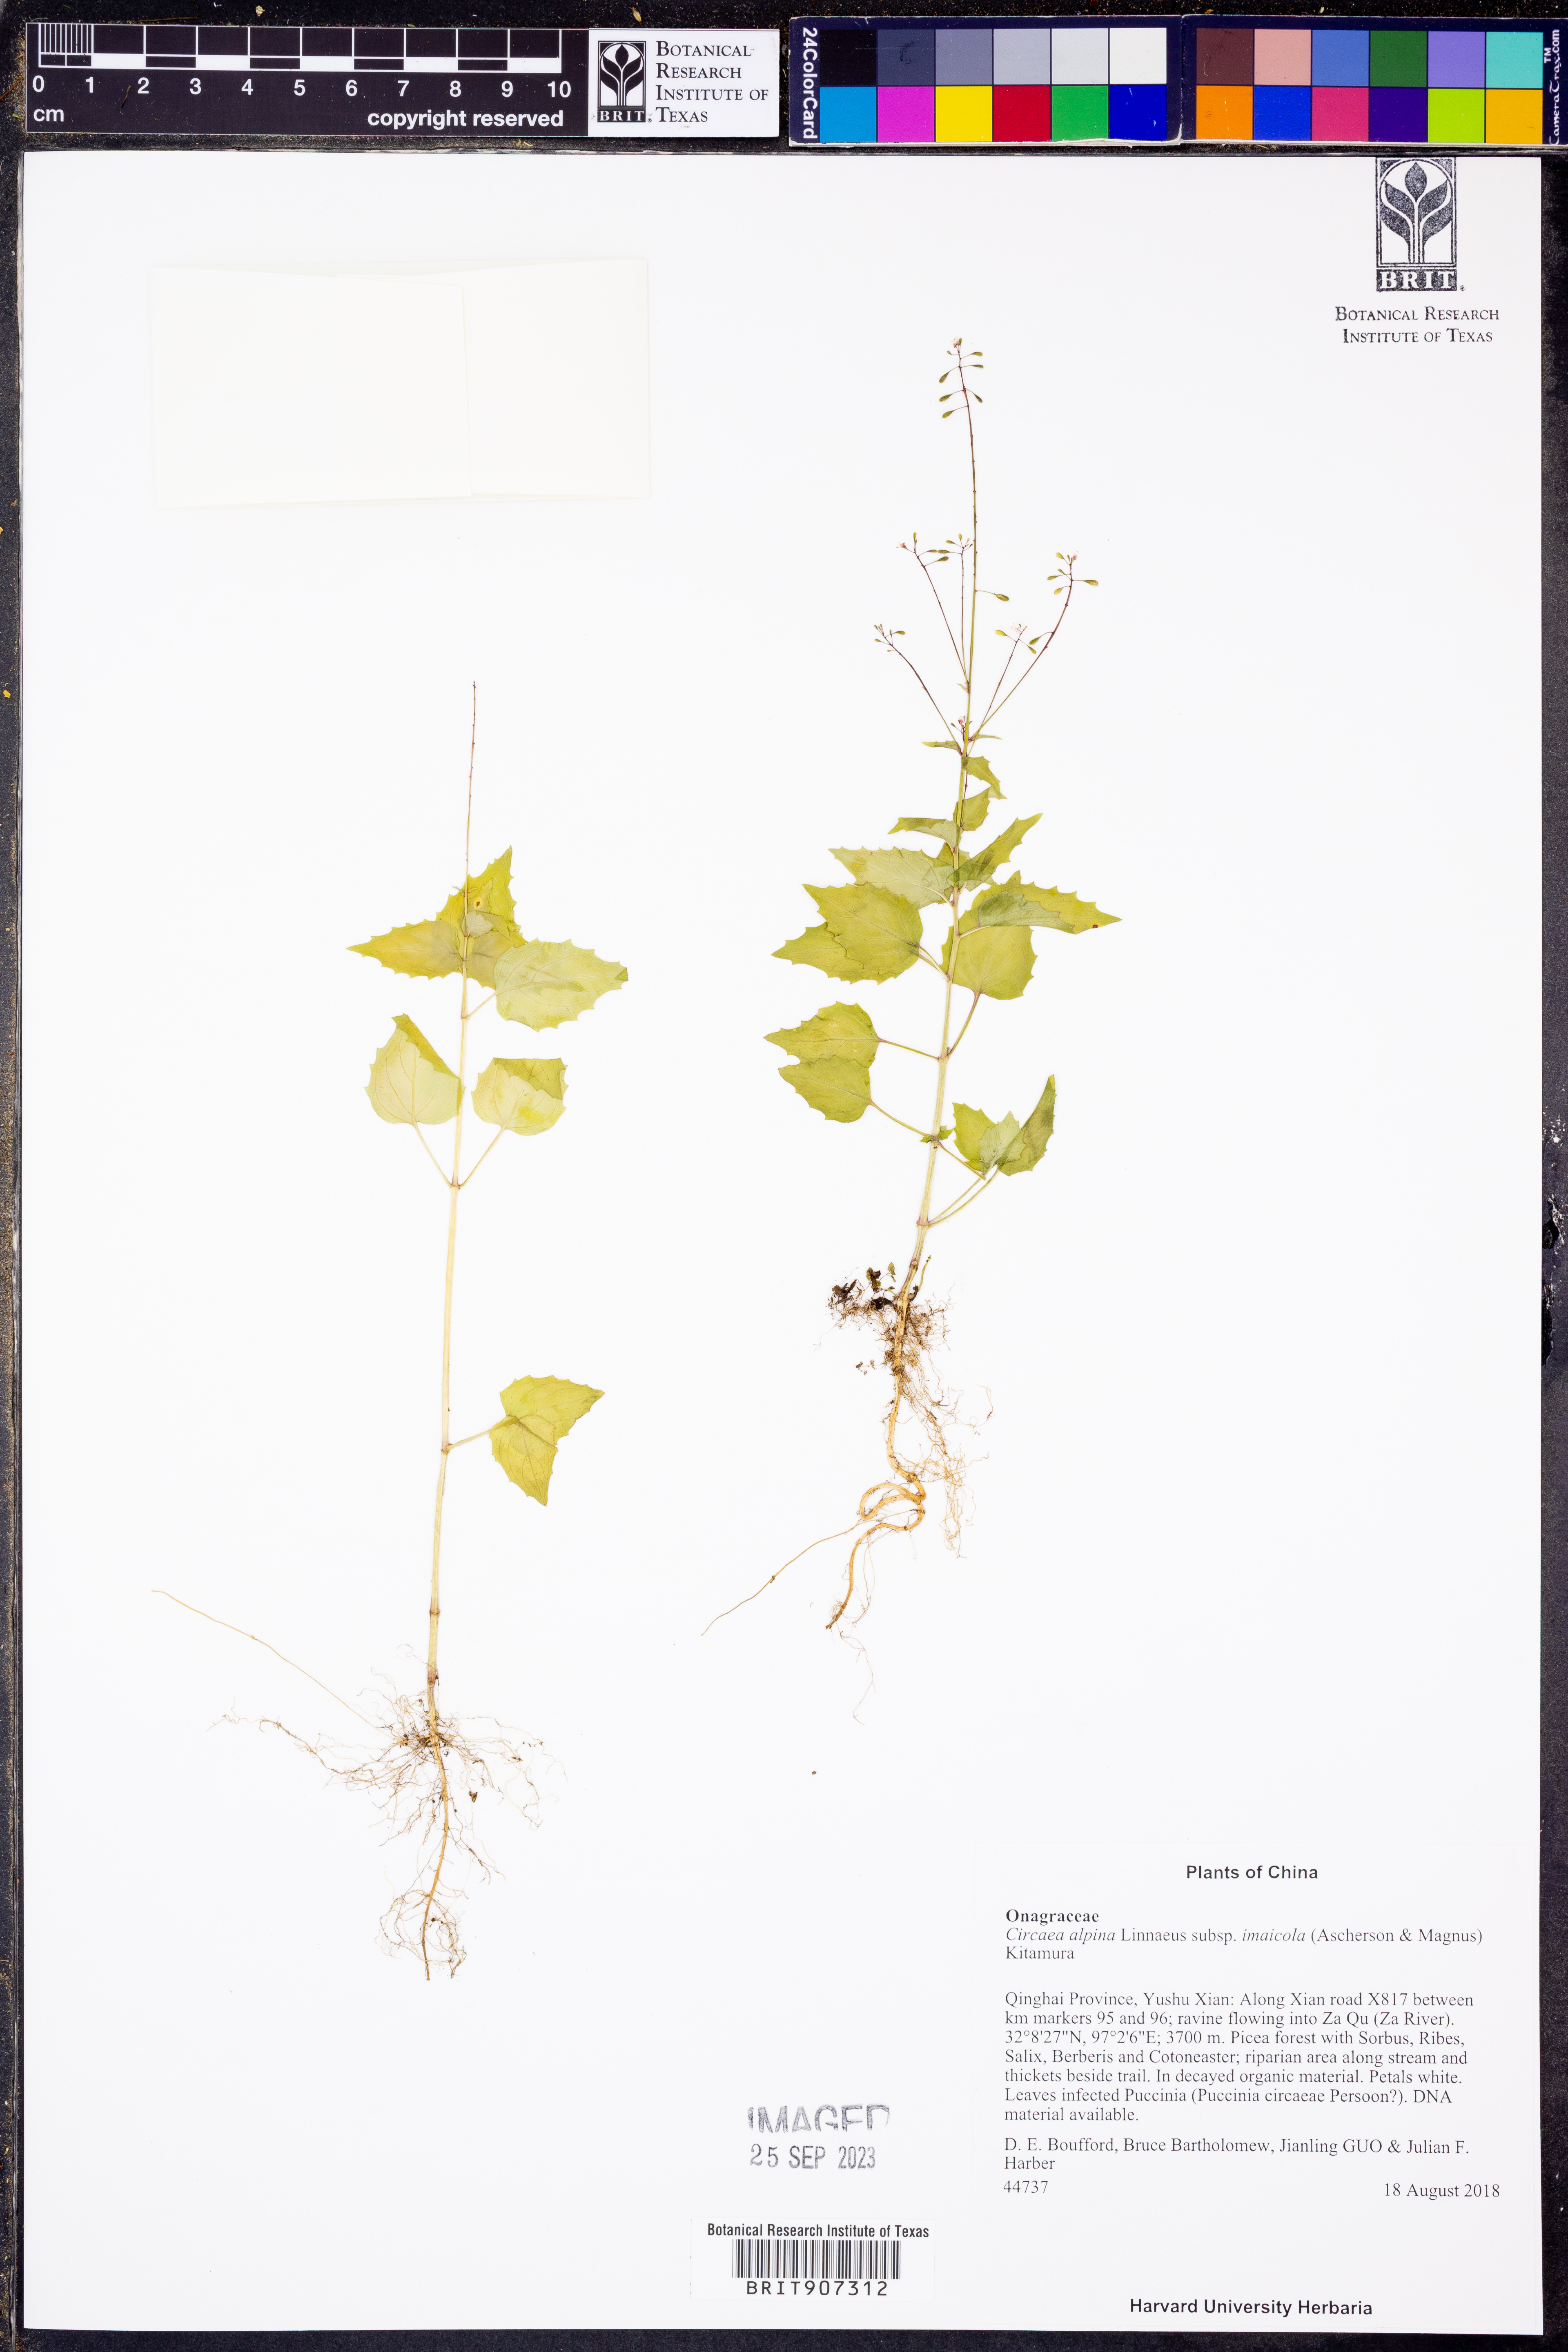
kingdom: Plantae
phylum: Tracheophyta
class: Magnoliopsida
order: Myrtales
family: Onagraceae
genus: Circaea
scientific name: Circaea alpina
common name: Alpine enchanter's-nightshade
